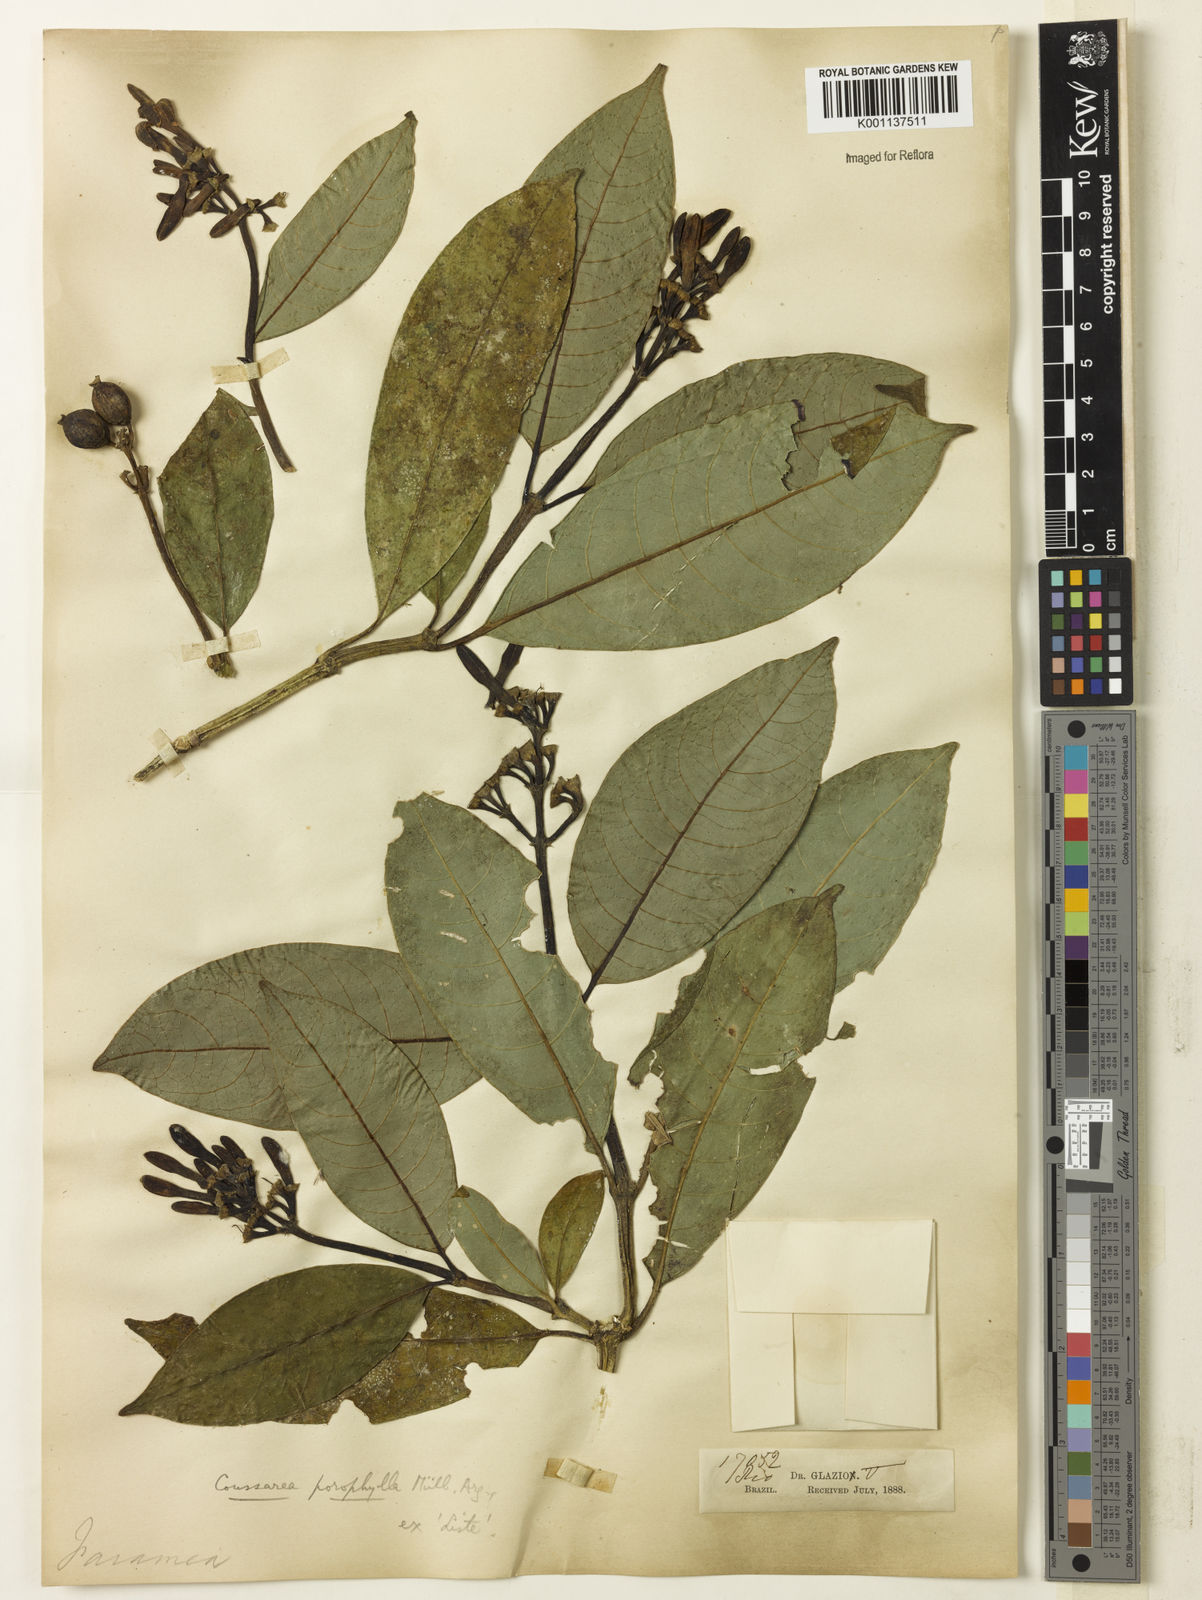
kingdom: Plantae
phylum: Tracheophyta
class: Magnoliopsida
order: Gentianales
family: Rubiaceae
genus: Coussarea
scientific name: Coussarea meridionalis
